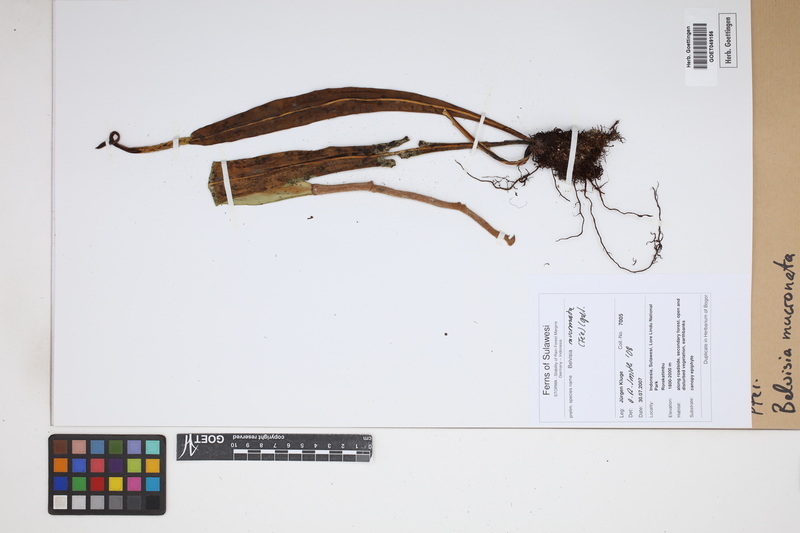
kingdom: Plantae
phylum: Tracheophyta
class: Polypodiopsida
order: Polypodiales
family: Polypodiaceae
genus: Lepisorus
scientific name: Lepisorus mucronatus
